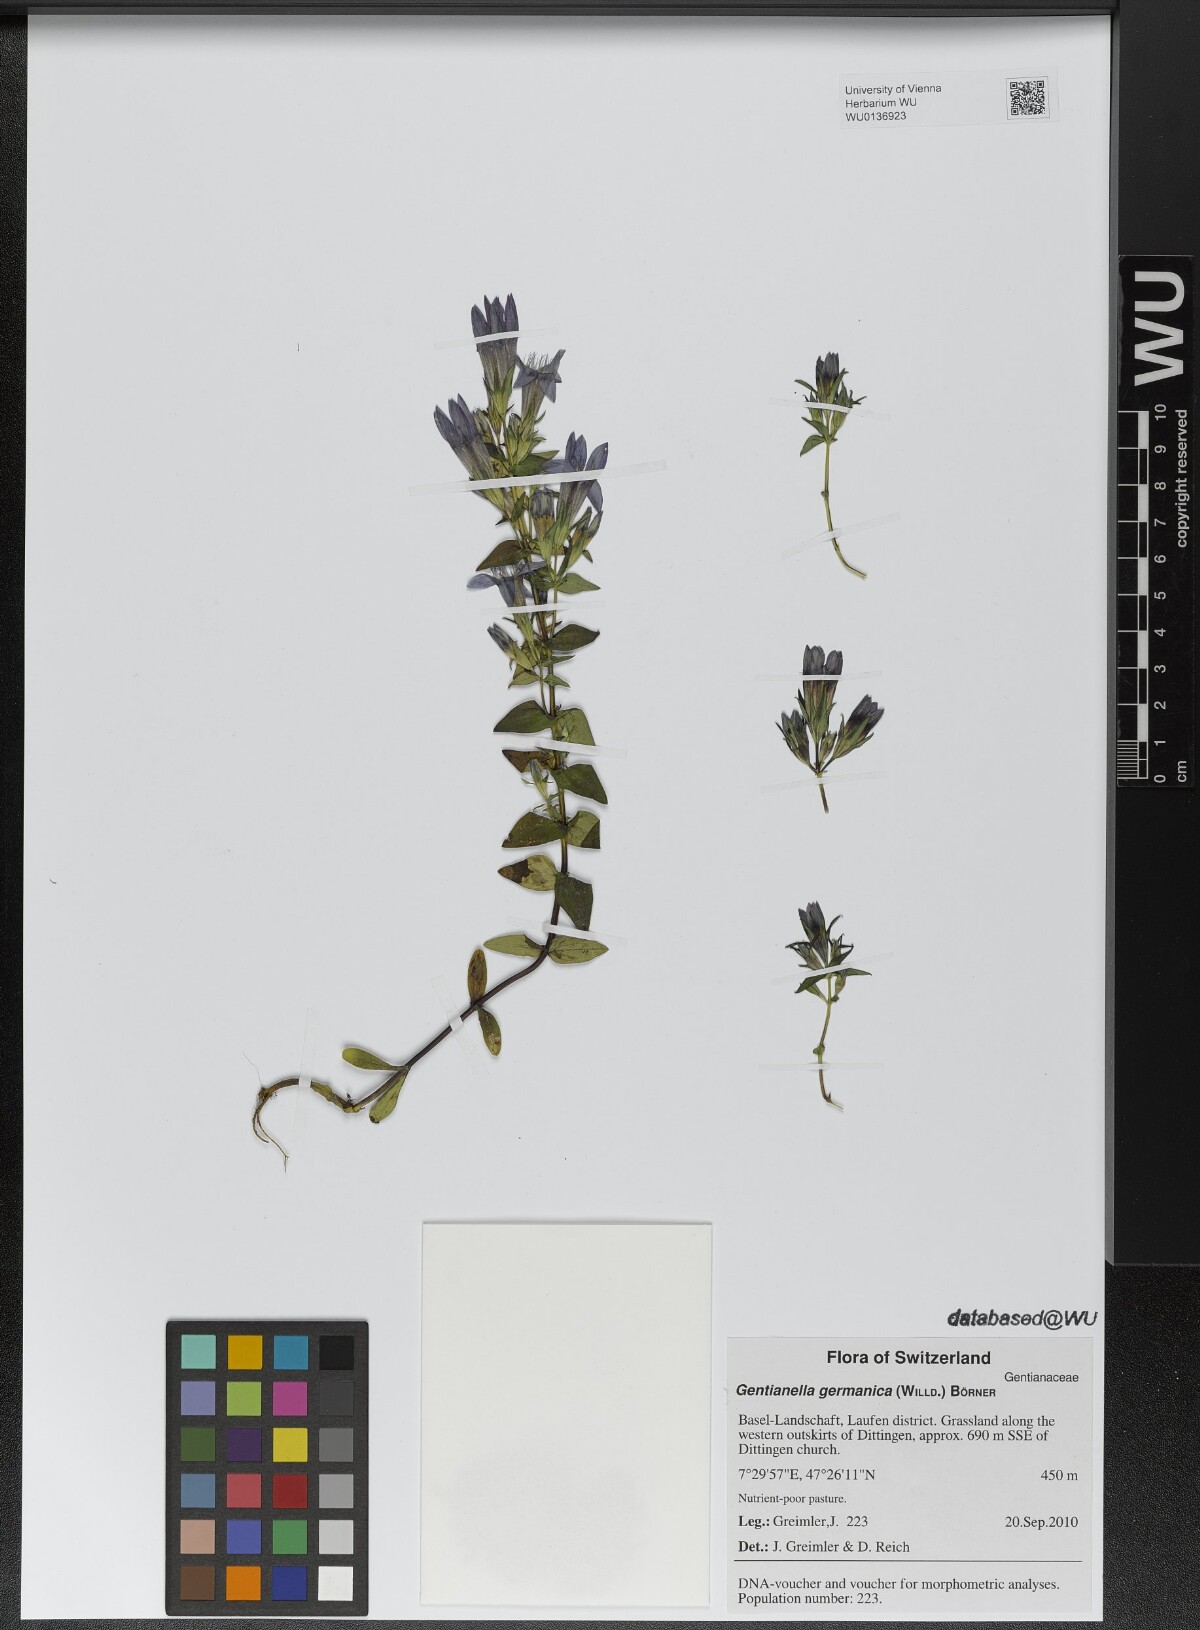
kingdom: Plantae
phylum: Tracheophyta
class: Magnoliopsida
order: Gentianales
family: Gentianaceae
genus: Gentianella
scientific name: Gentianella germanica
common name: Chiltern-gentian
